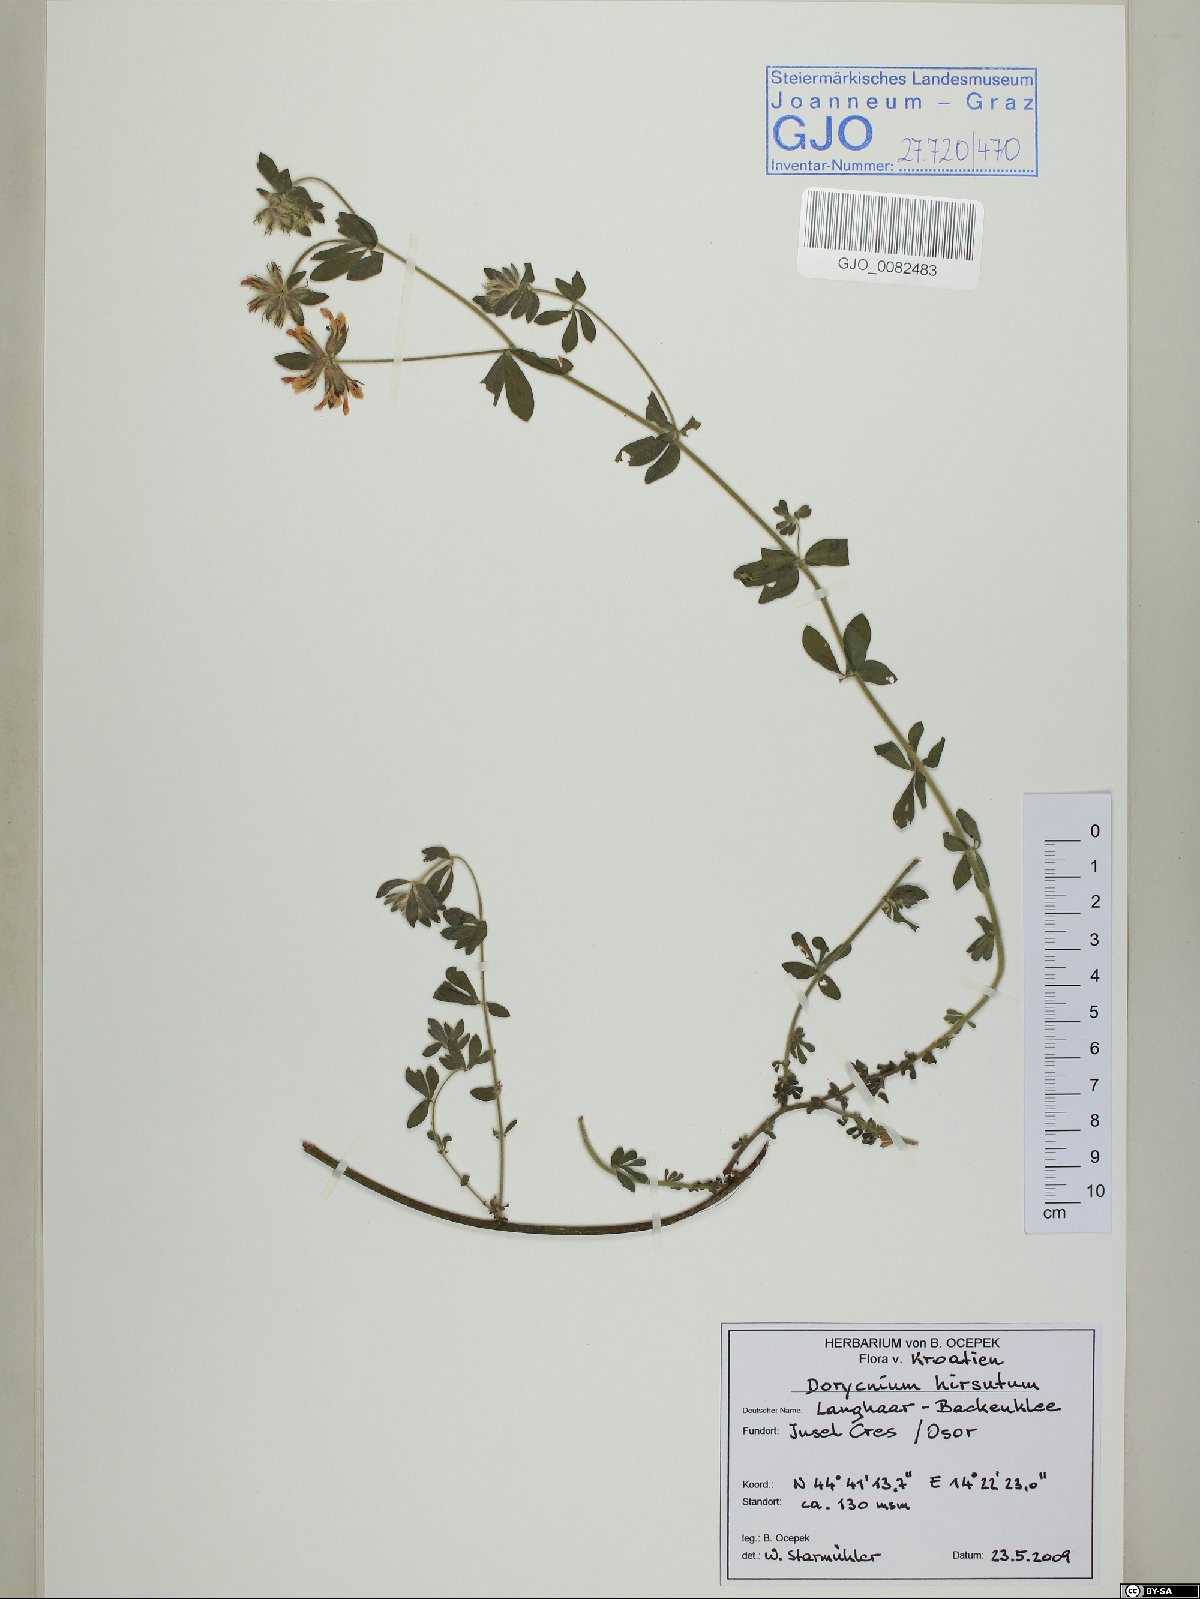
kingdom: Plantae
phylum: Tracheophyta
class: Magnoliopsida
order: Fabales
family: Fabaceae
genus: Lotus
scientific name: Lotus hirsutus
